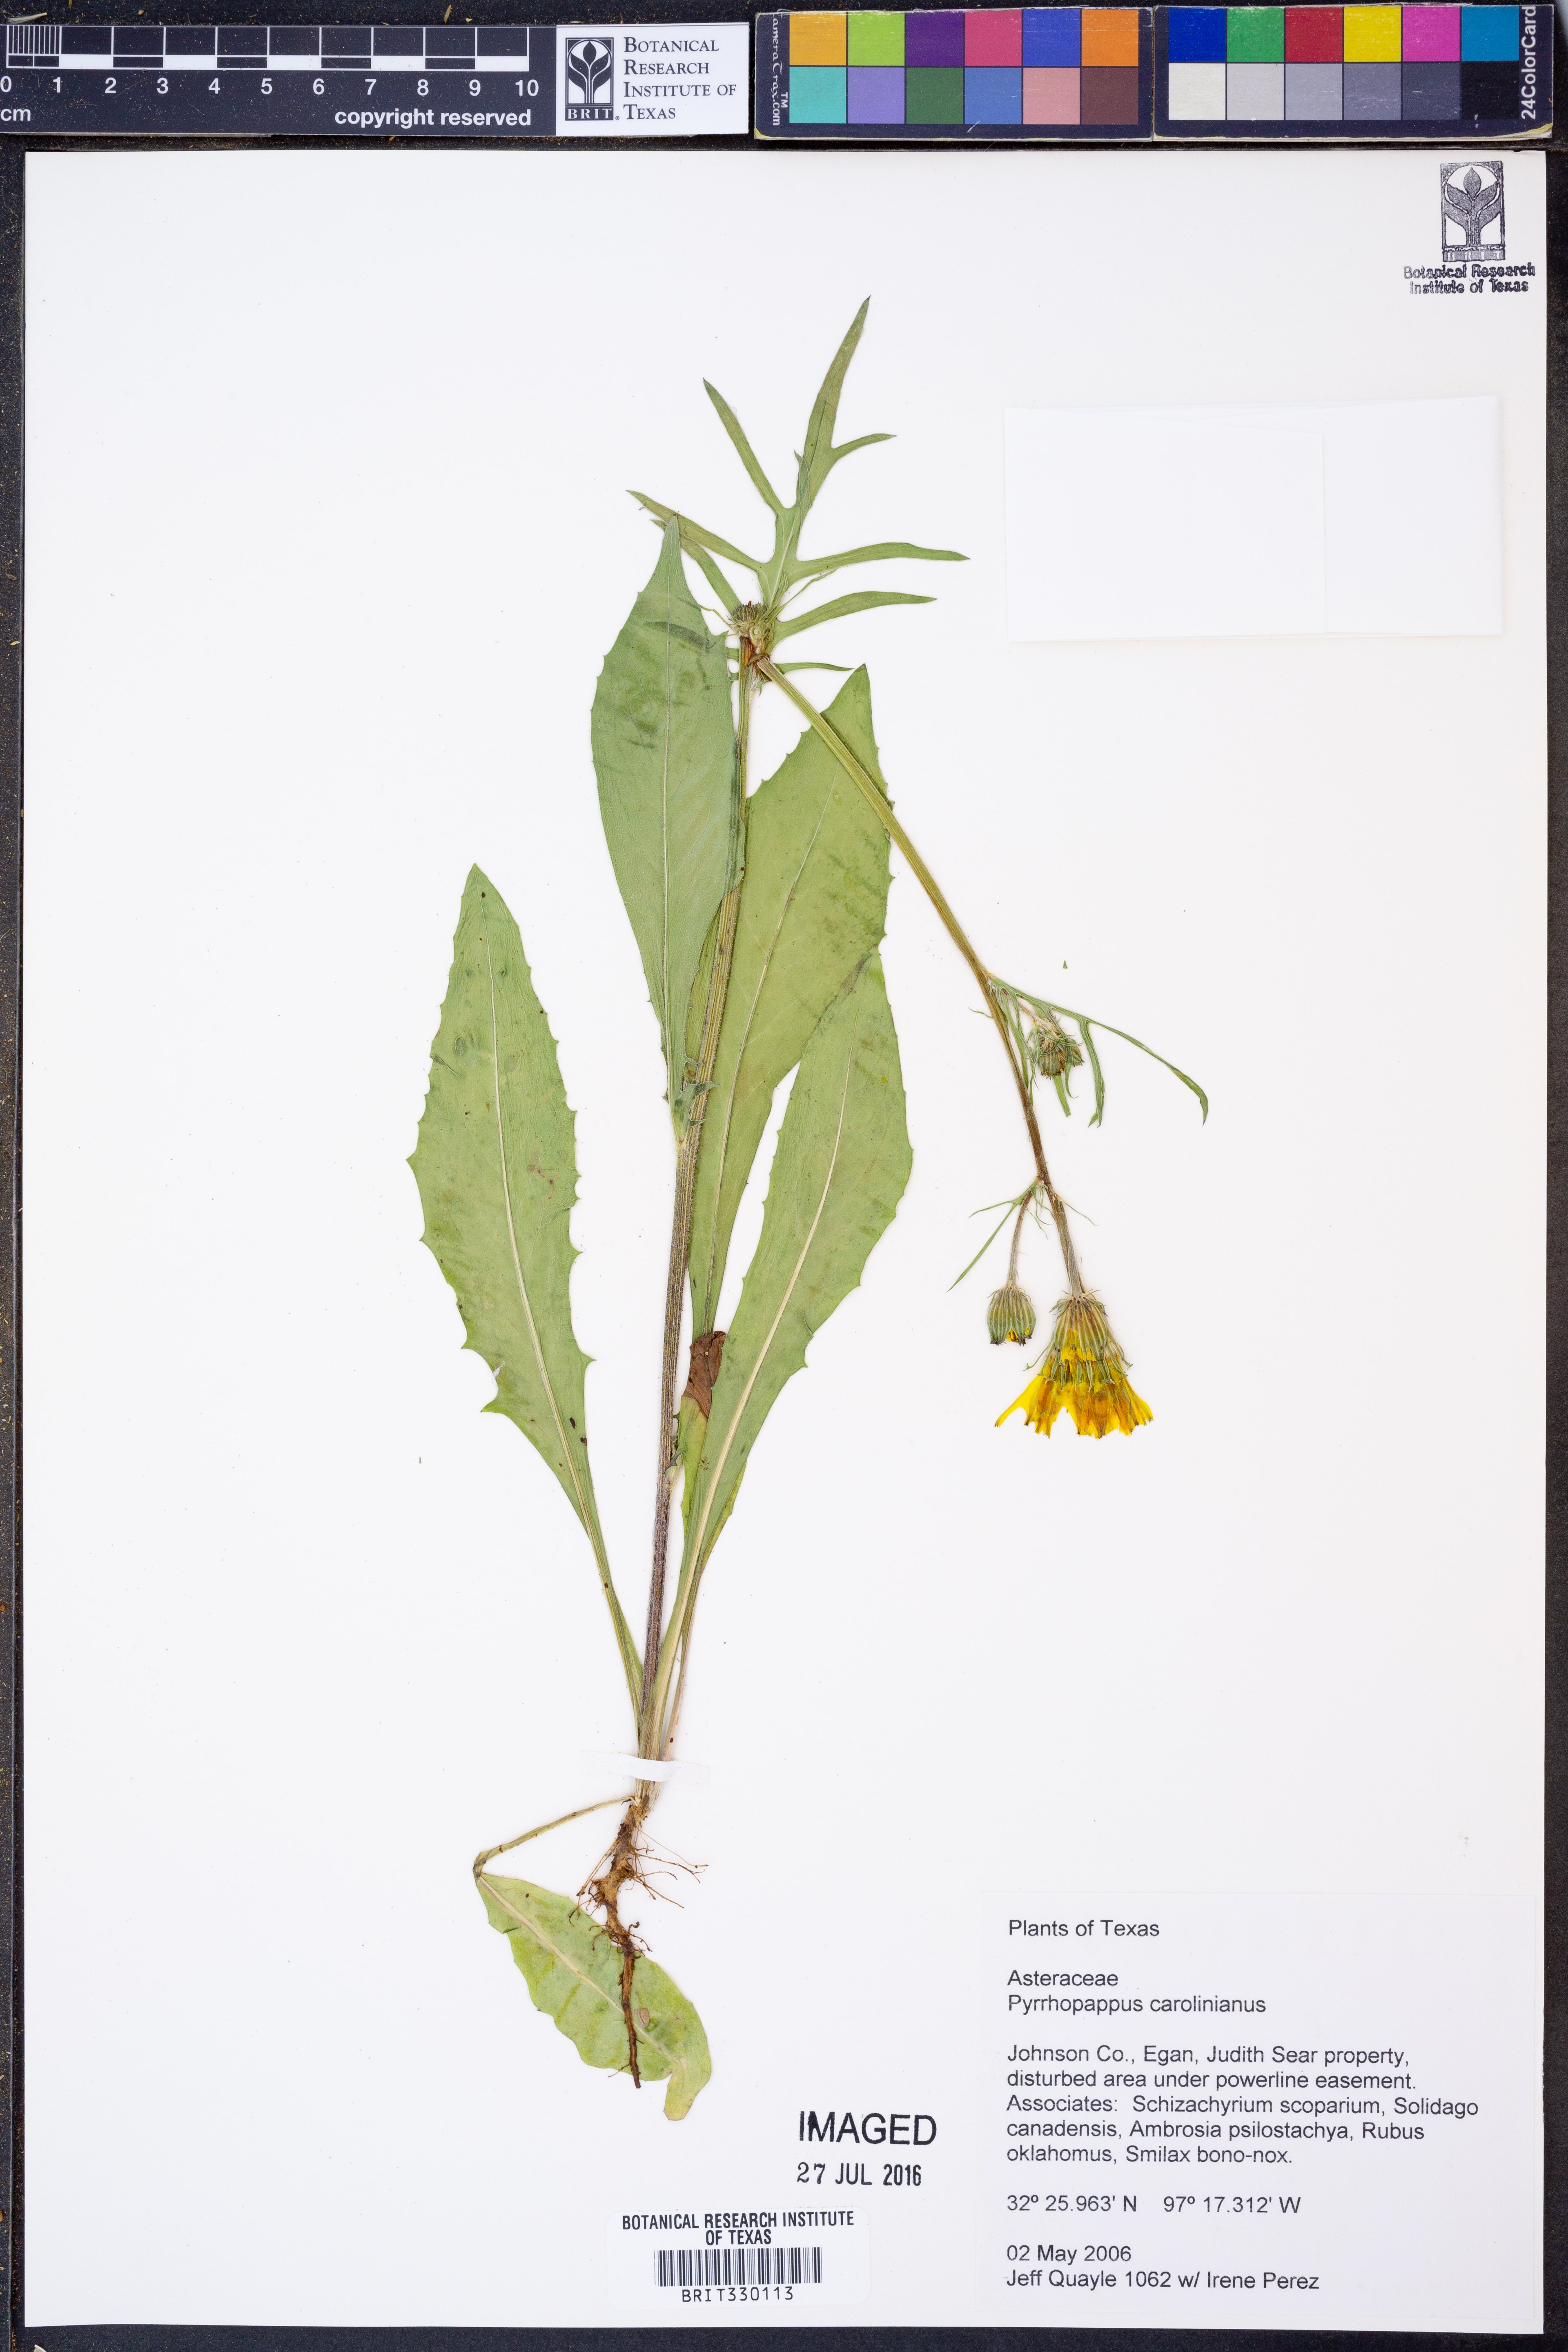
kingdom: Plantae
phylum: Tracheophyta
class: Magnoliopsida
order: Asterales
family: Asteraceae
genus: Pyrrhopappus
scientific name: Pyrrhopappus carolinianus
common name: Carolina desert-chicory
